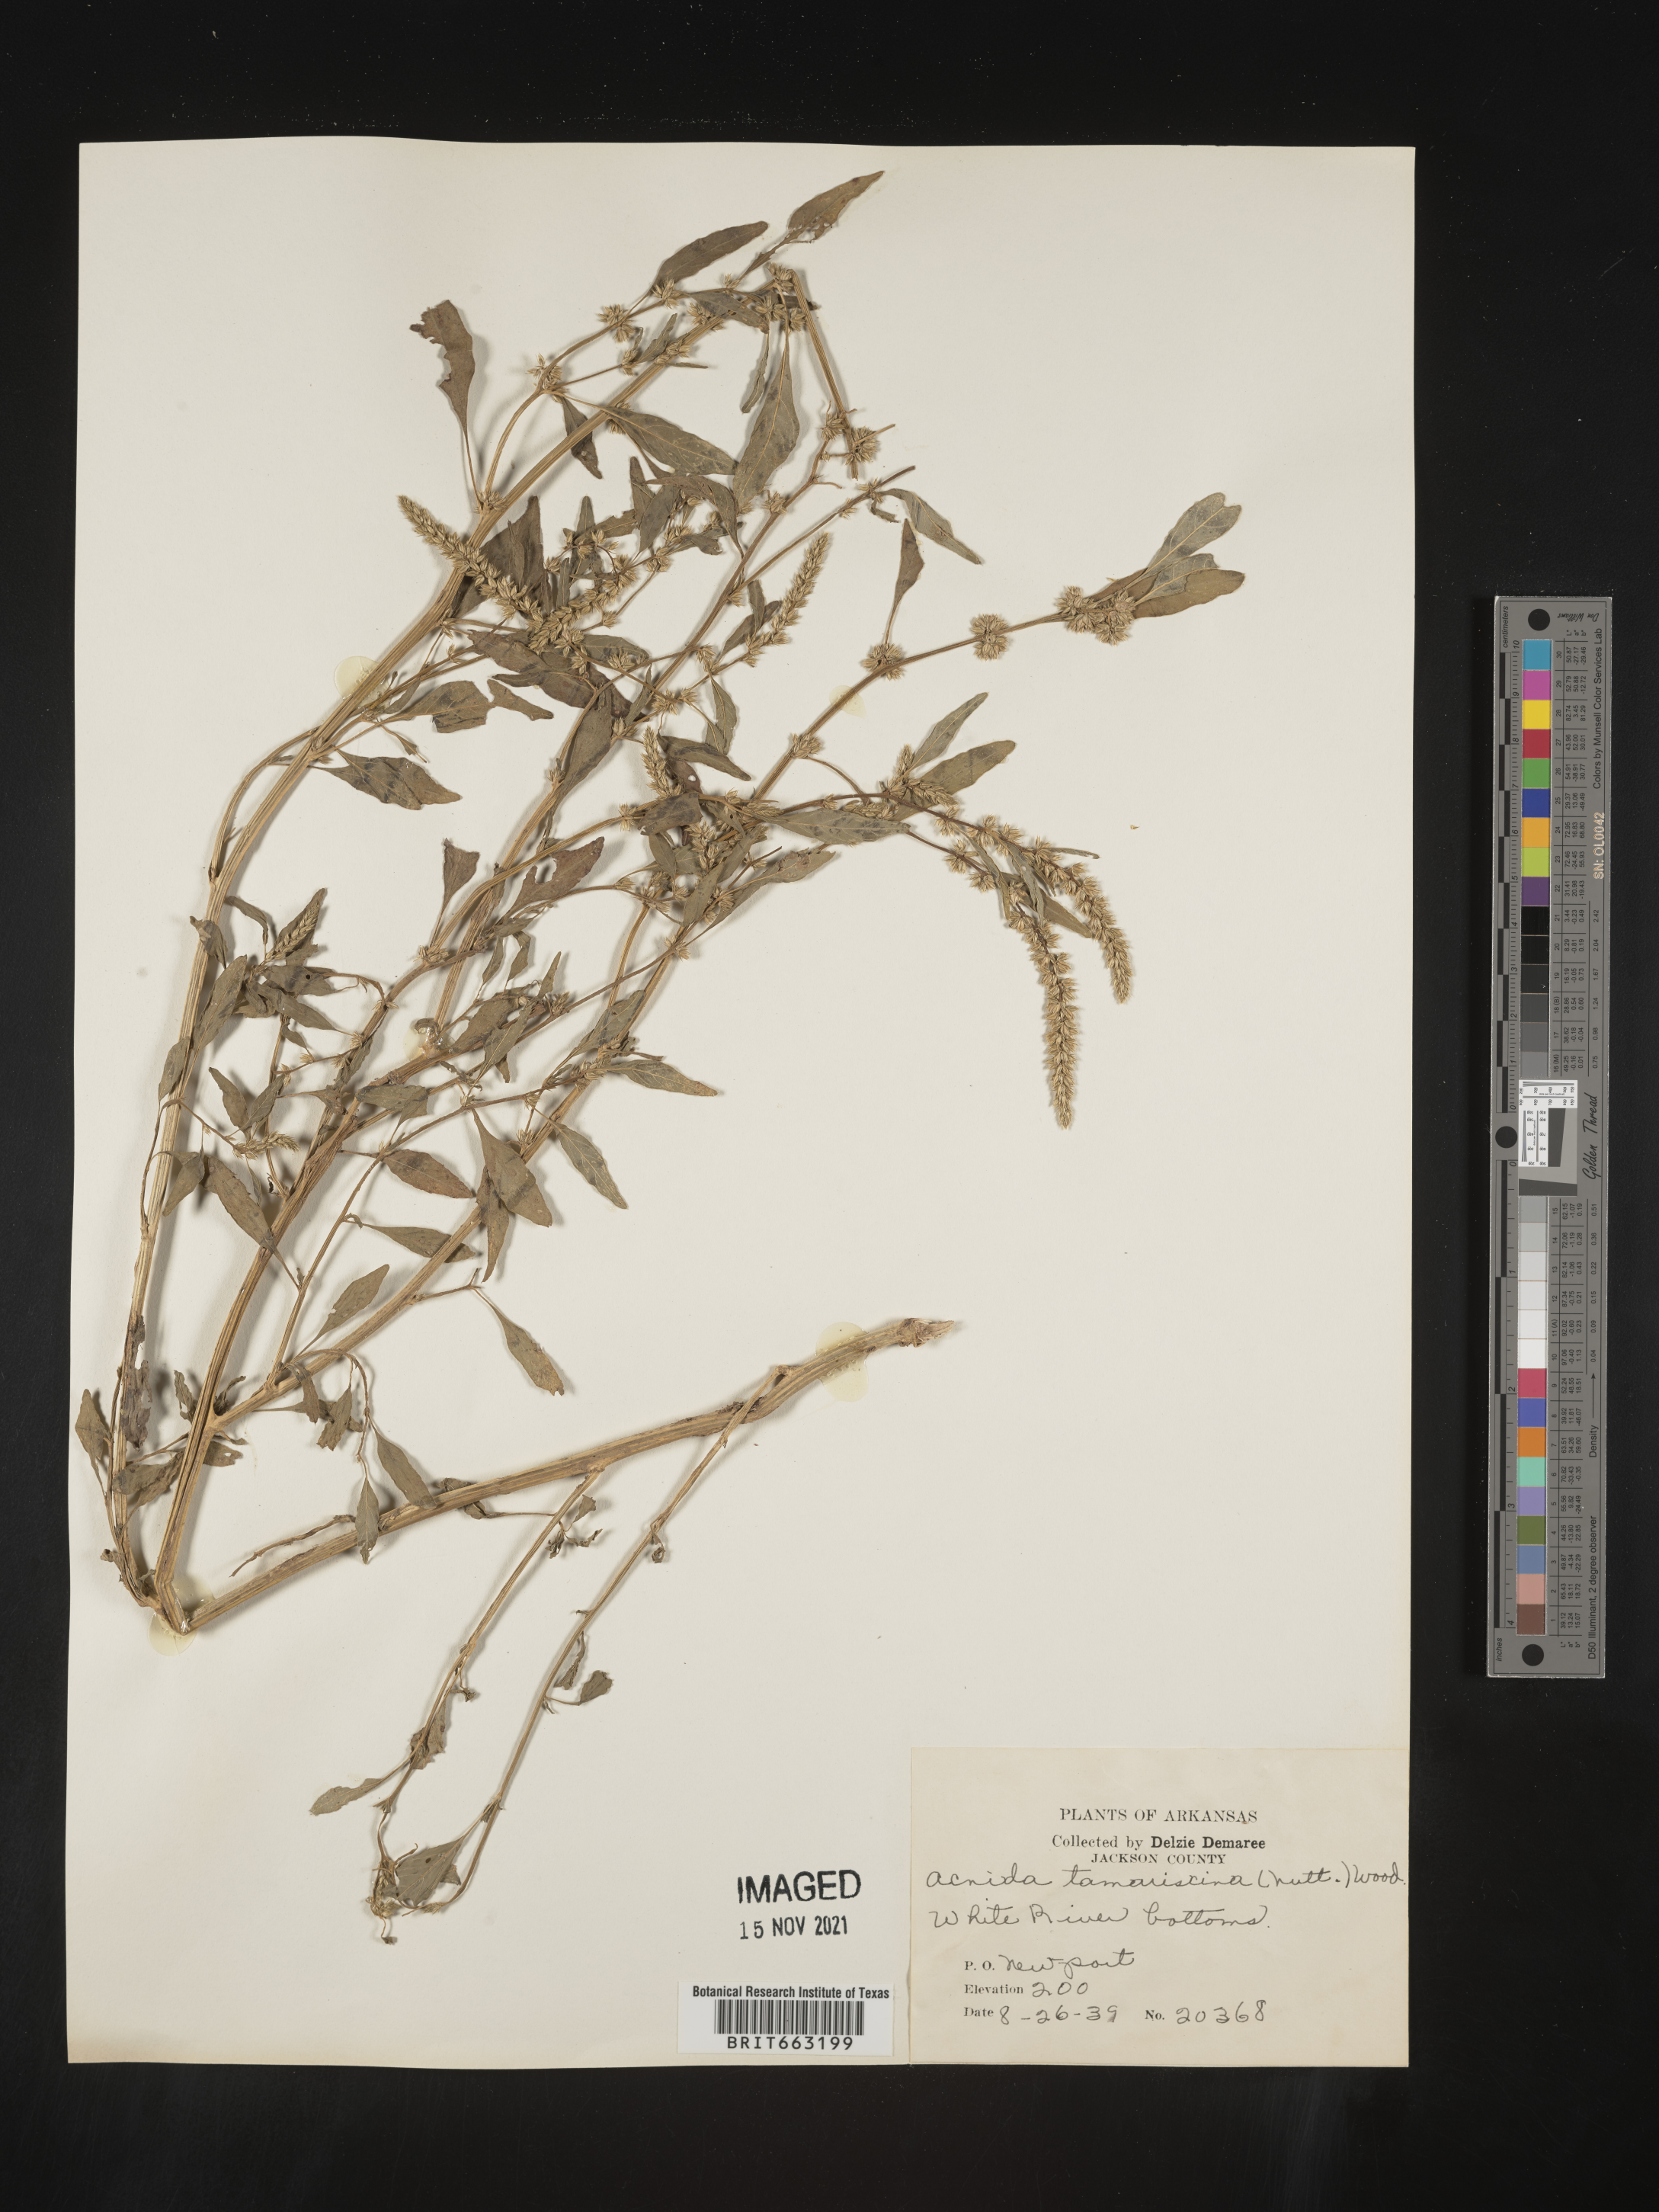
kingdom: Plantae
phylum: Tracheophyta
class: Magnoliopsida
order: Caryophyllales
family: Amaranthaceae
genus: Amaranthus
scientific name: Amaranthus tamariscinus
